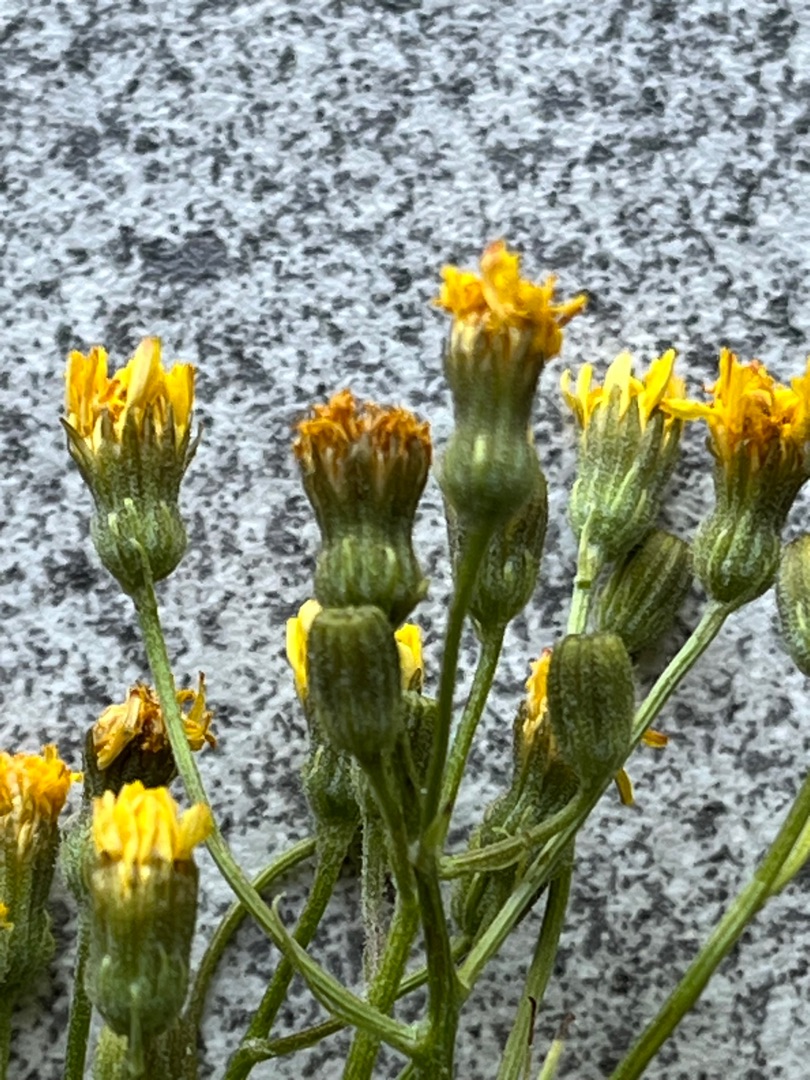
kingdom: Plantae
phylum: Tracheophyta
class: Magnoliopsida
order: Asterales
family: Asteraceae
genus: Crepis
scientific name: Crepis capillaris
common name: Grøn høgeskæg
